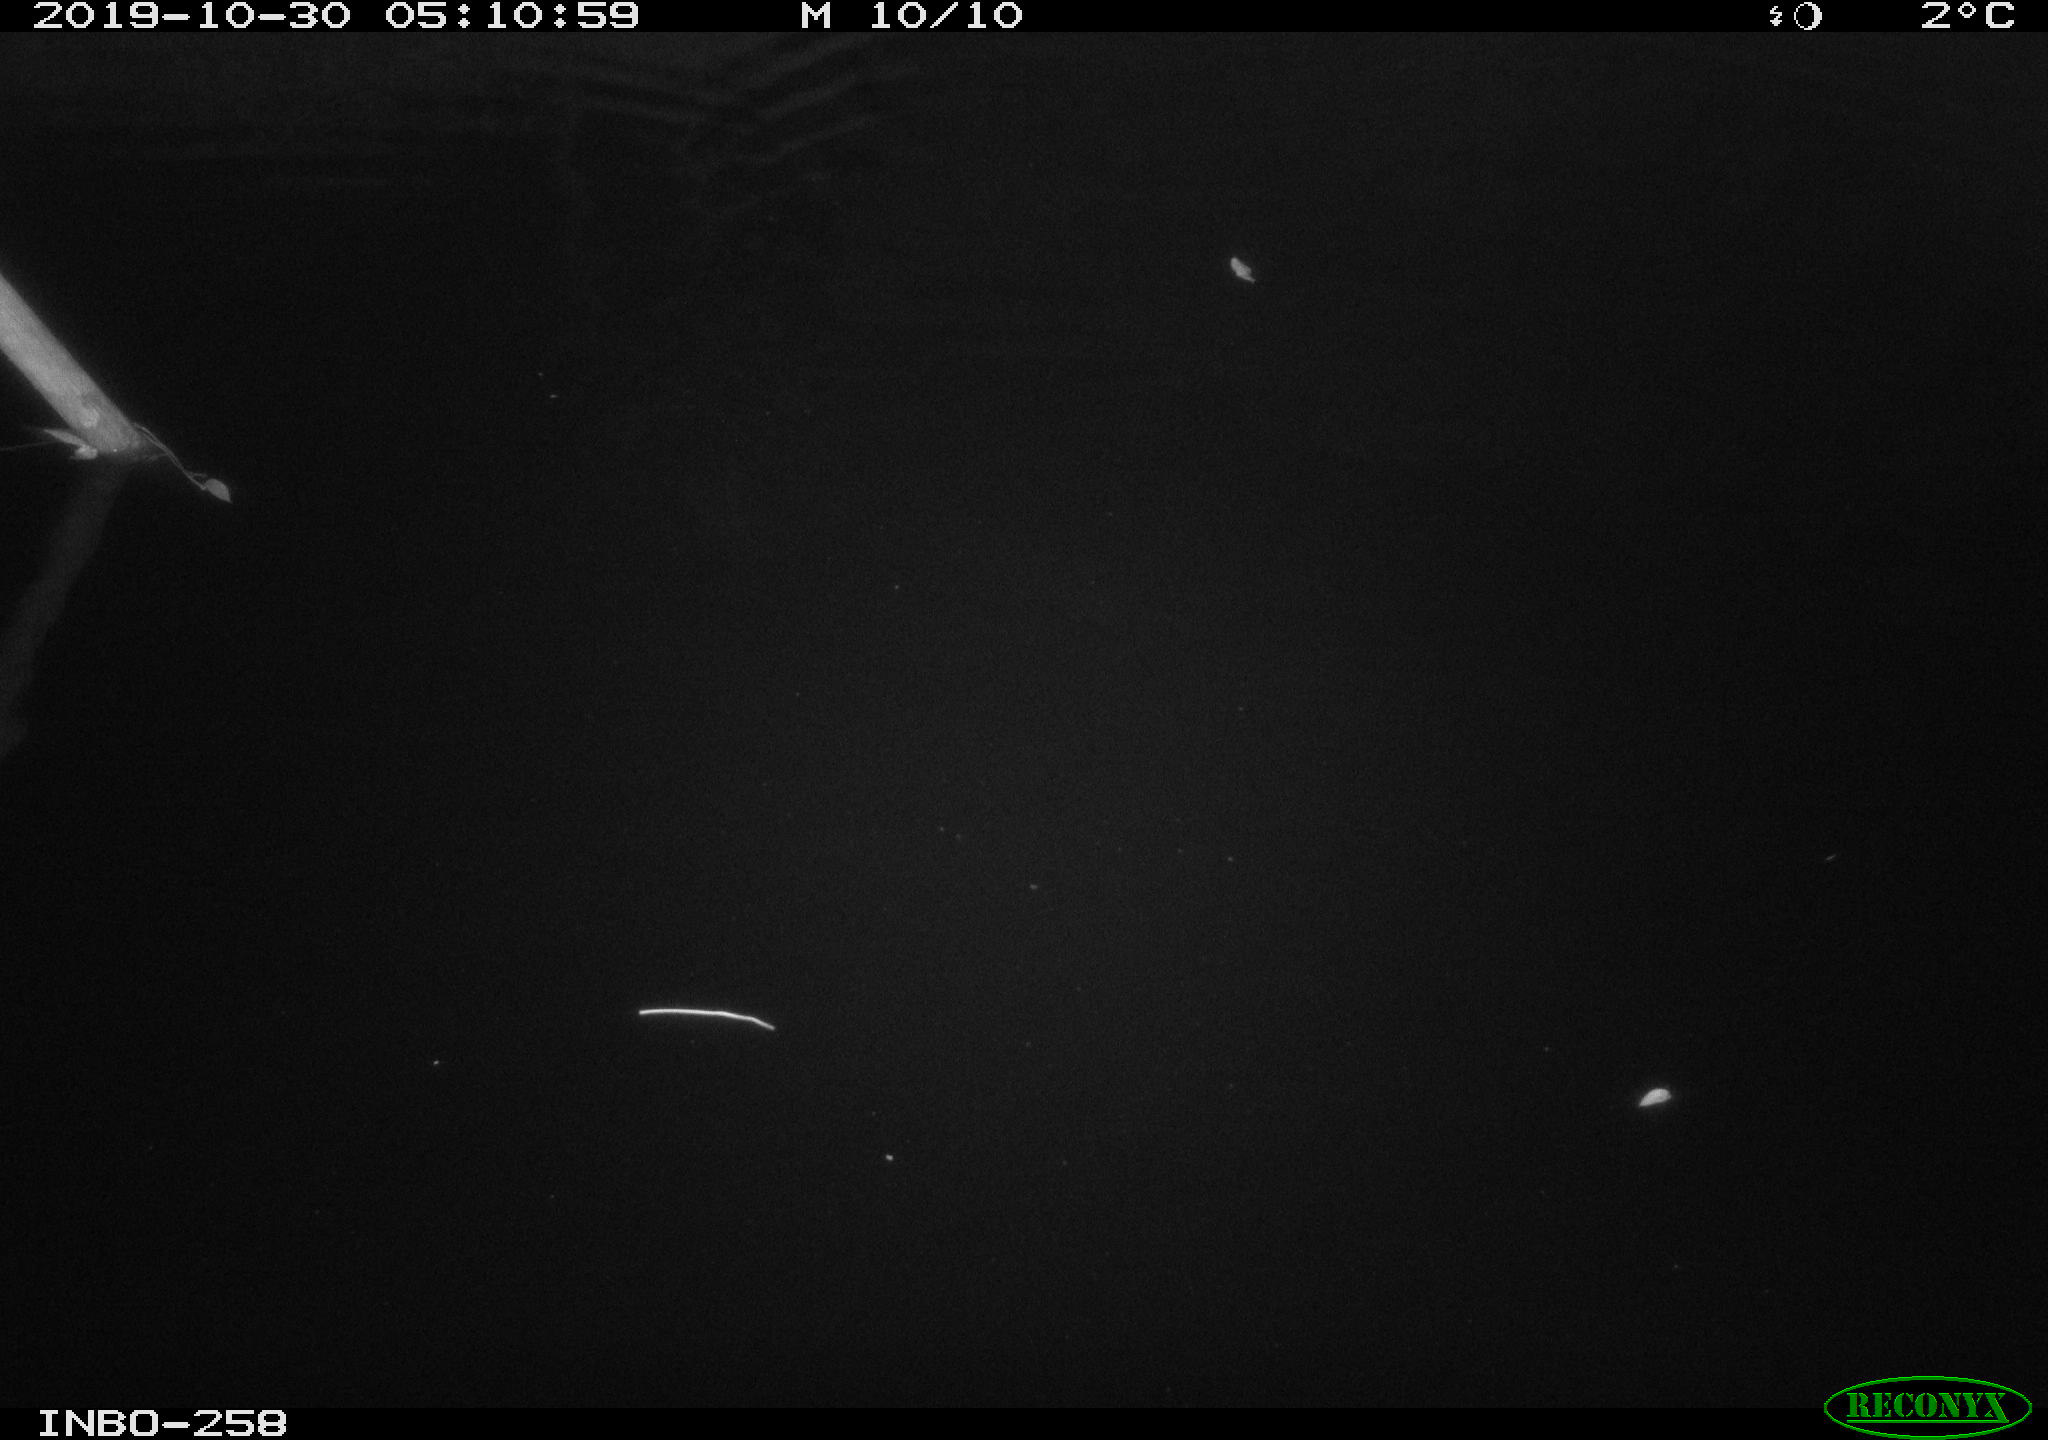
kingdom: Animalia
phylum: Chordata
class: Mammalia
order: Rodentia
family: Muridae
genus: Rattus
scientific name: Rattus norvegicus
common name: Brown rat
